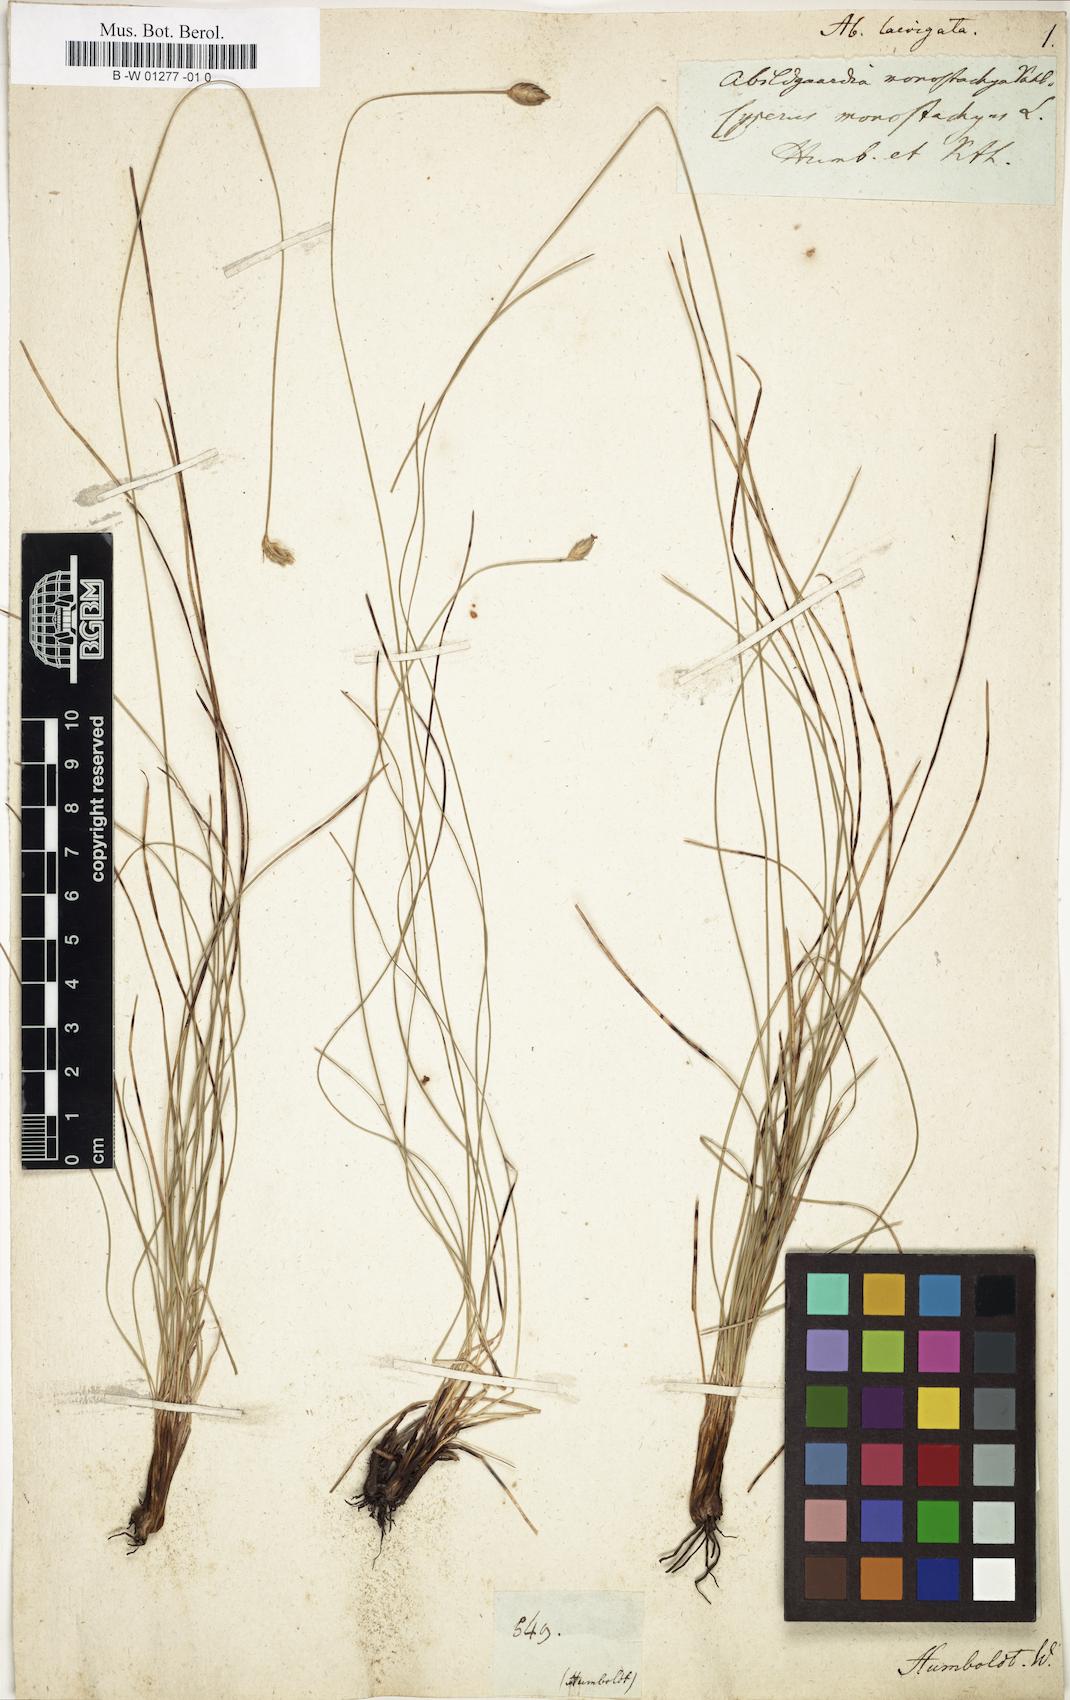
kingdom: Plantae
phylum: Tracheophyta
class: Liliopsida
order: Poales
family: Cyperaceae
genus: Abildgaardia
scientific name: Abildgaardia laevigata
